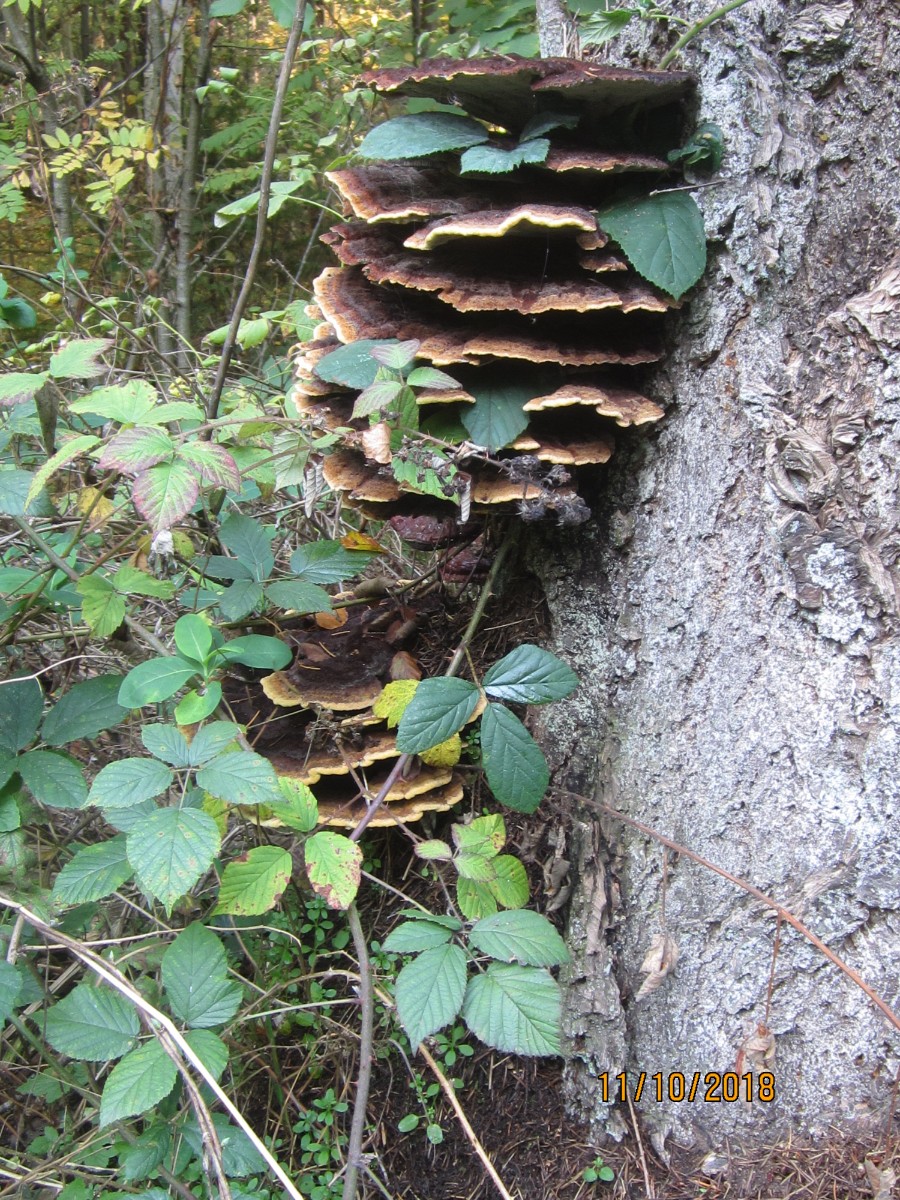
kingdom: Fungi
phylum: Basidiomycota
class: Agaricomycetes
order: Polyporales
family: Laetiporaceae
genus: Phaeolus
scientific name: Phaeolus schweinitzii
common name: brunporesvamp
